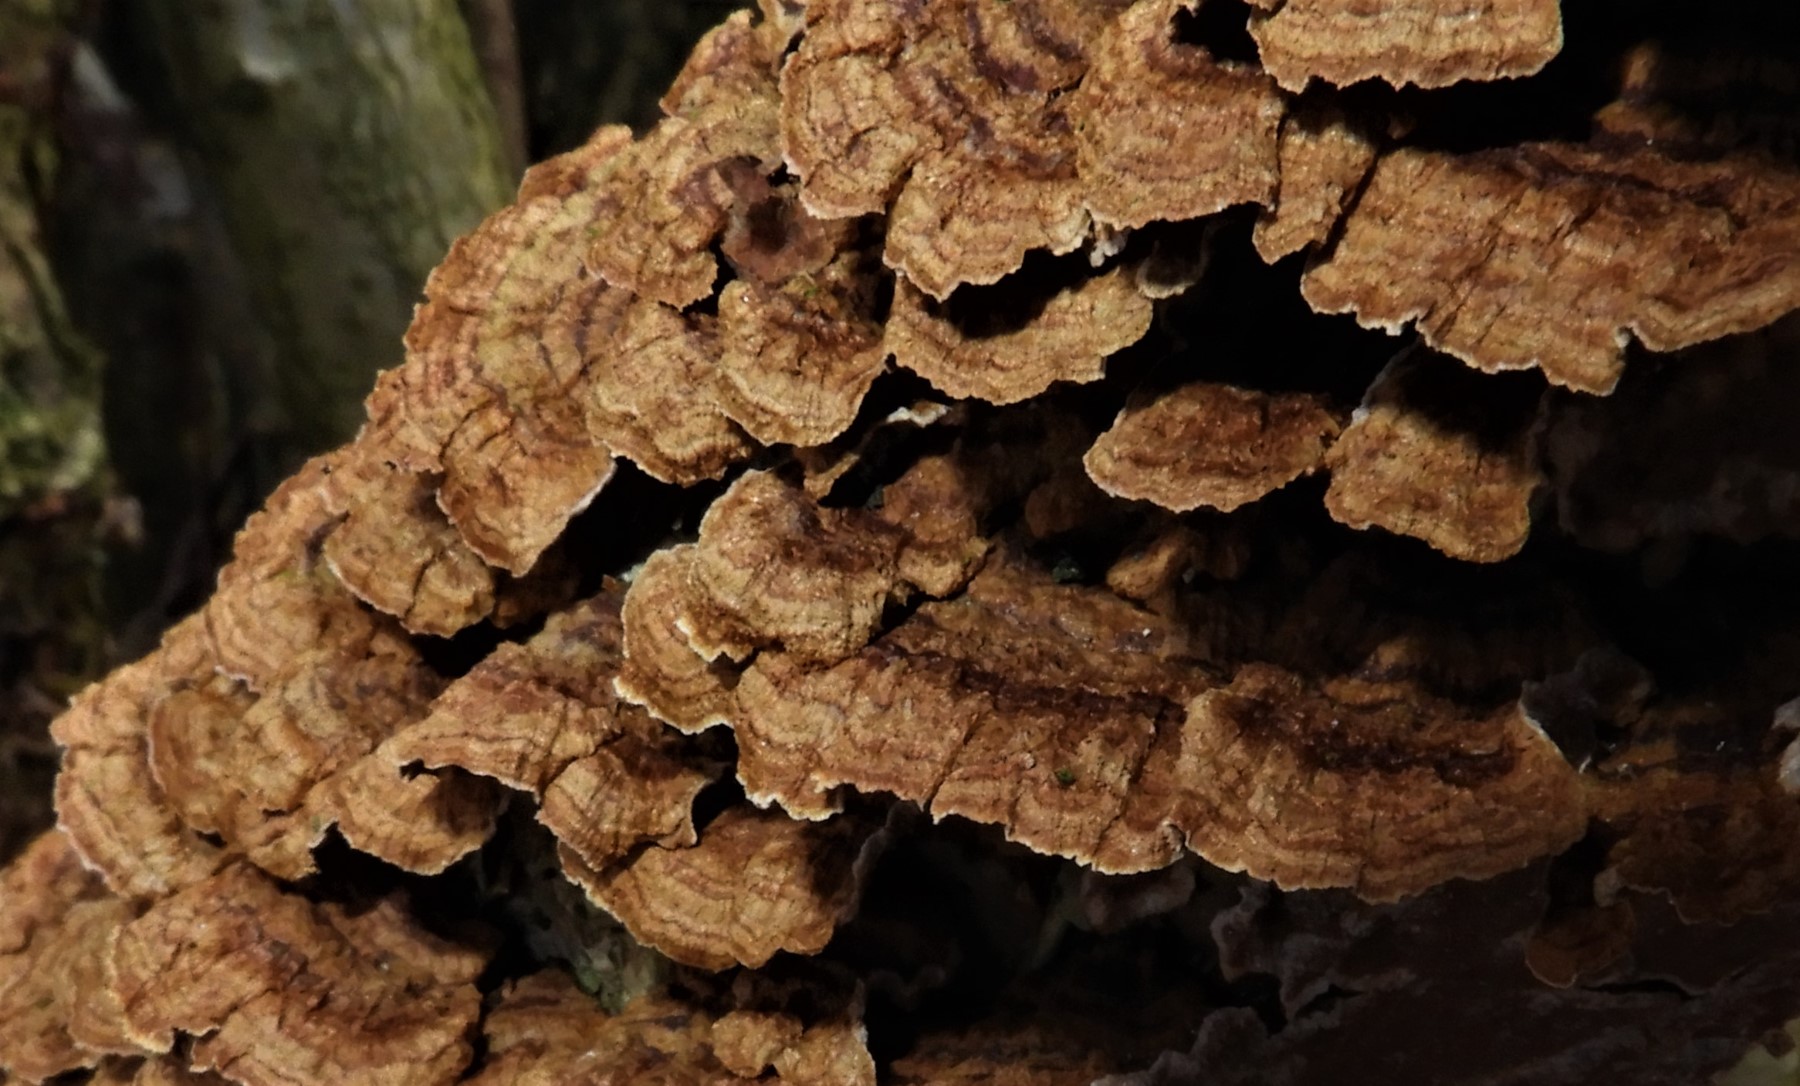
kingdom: Fungi
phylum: Basidiomycota
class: Agaricomycetes
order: Hymenochaetales
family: Hymenochaetaceae
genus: Hydnoporia
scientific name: Hydnoporia tabacina
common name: tobaksbrun ruslædersvamp
